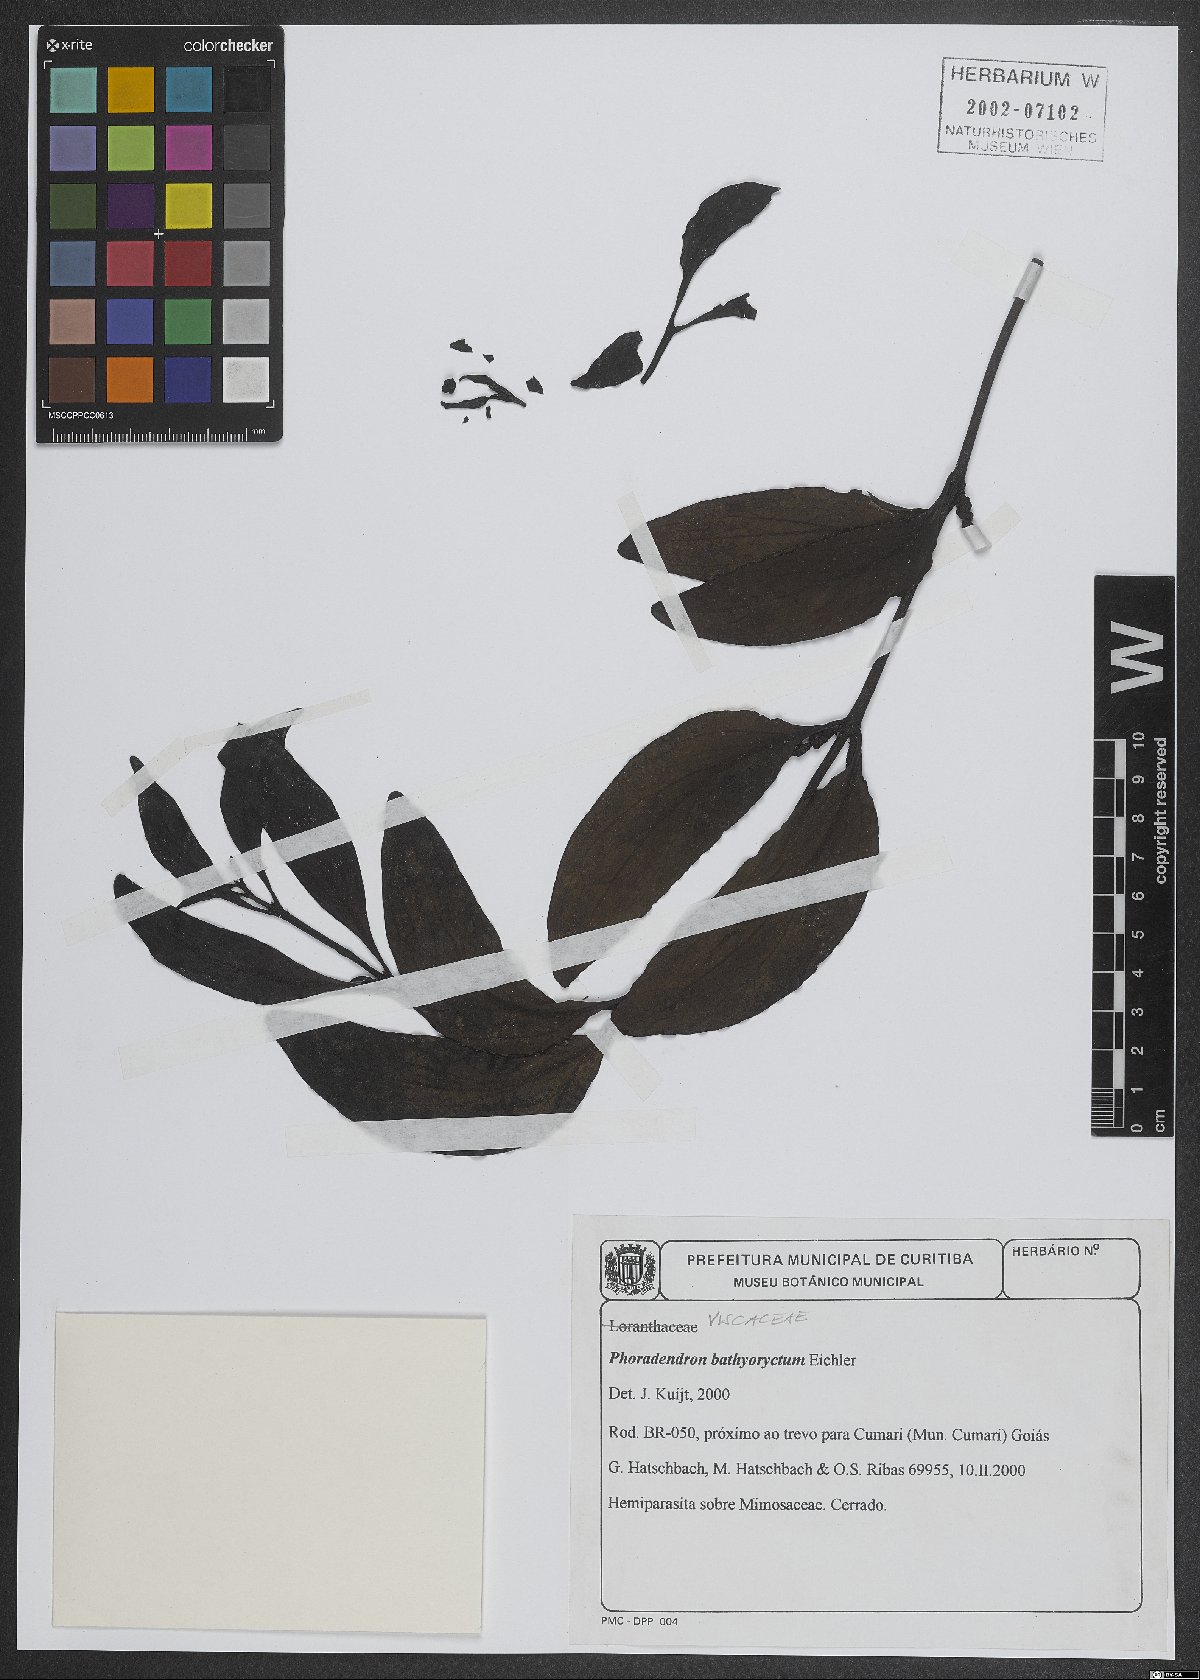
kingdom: Plantae
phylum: Tracheophyta
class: Magnoliopsida
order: Santalales
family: Viscaceae
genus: Phoradendron
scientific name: Phoradendron bathyoryctum
